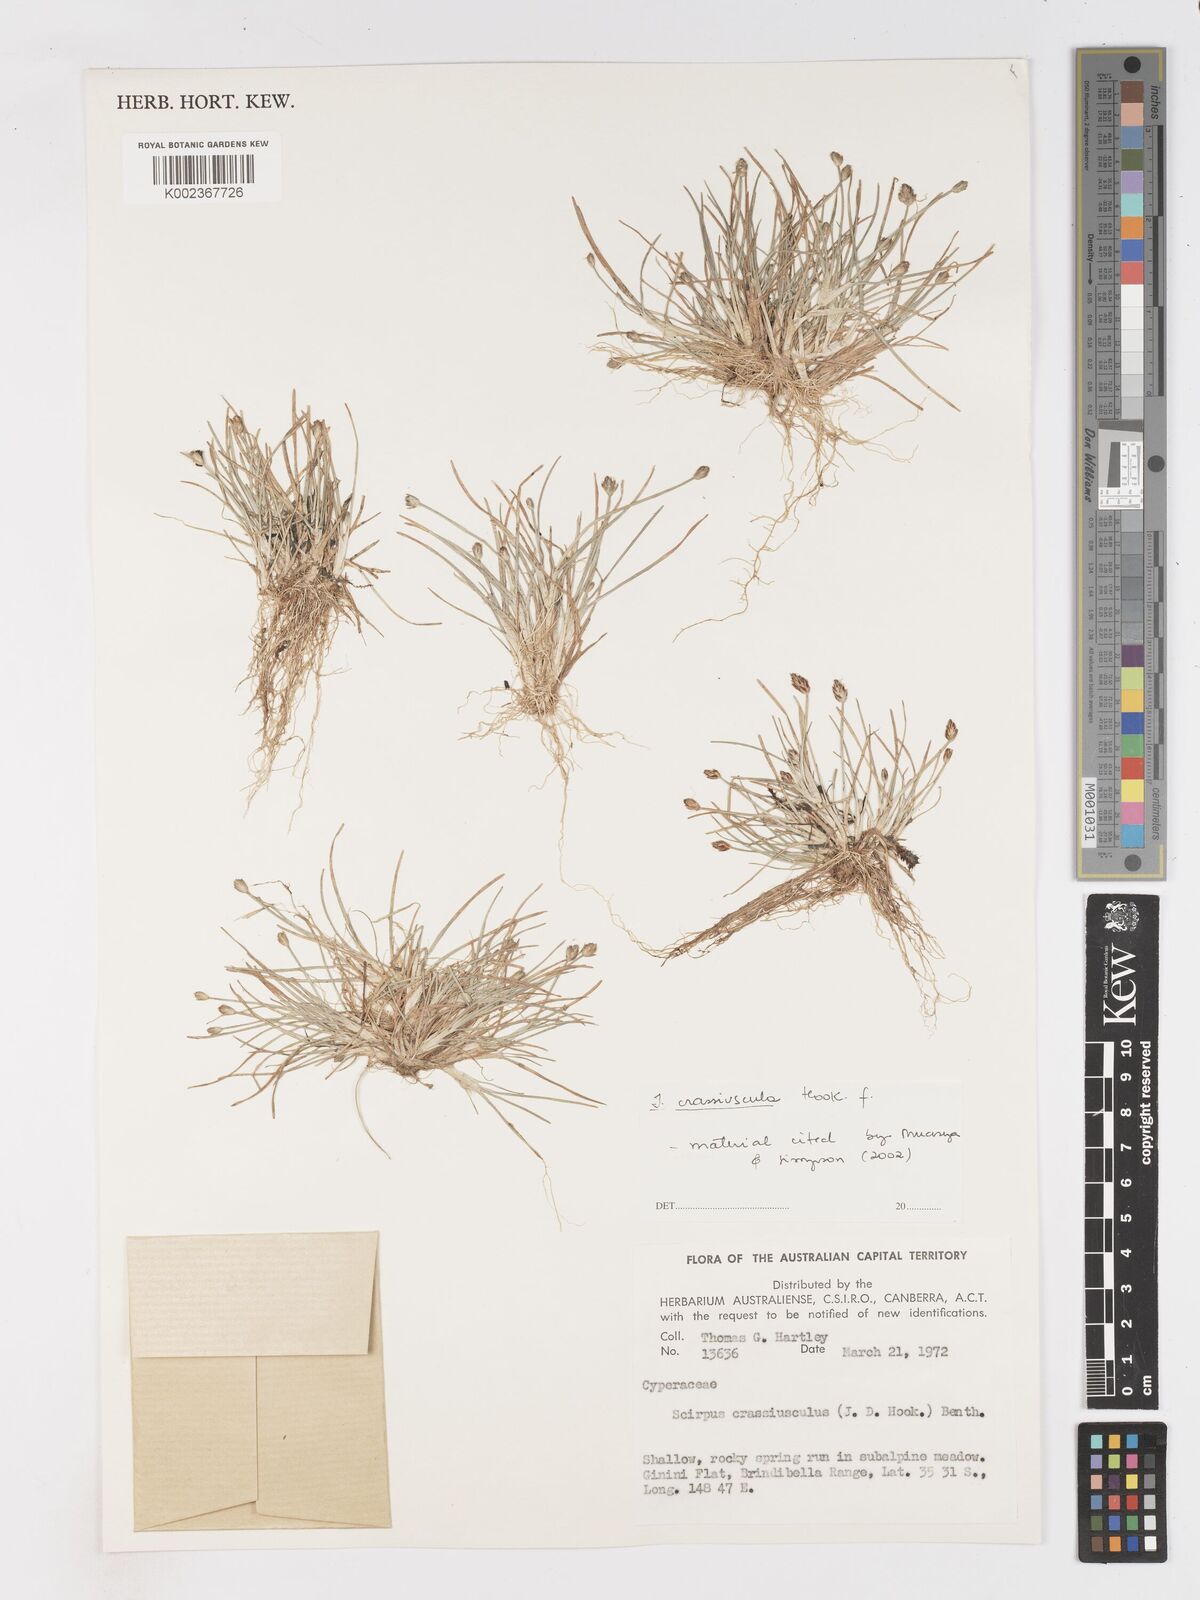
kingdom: Plantae
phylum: Tracheophyta
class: Liliopsida
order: Poales
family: Cyperaceae
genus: Isolepis
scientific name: Isolepis crassiuscula
